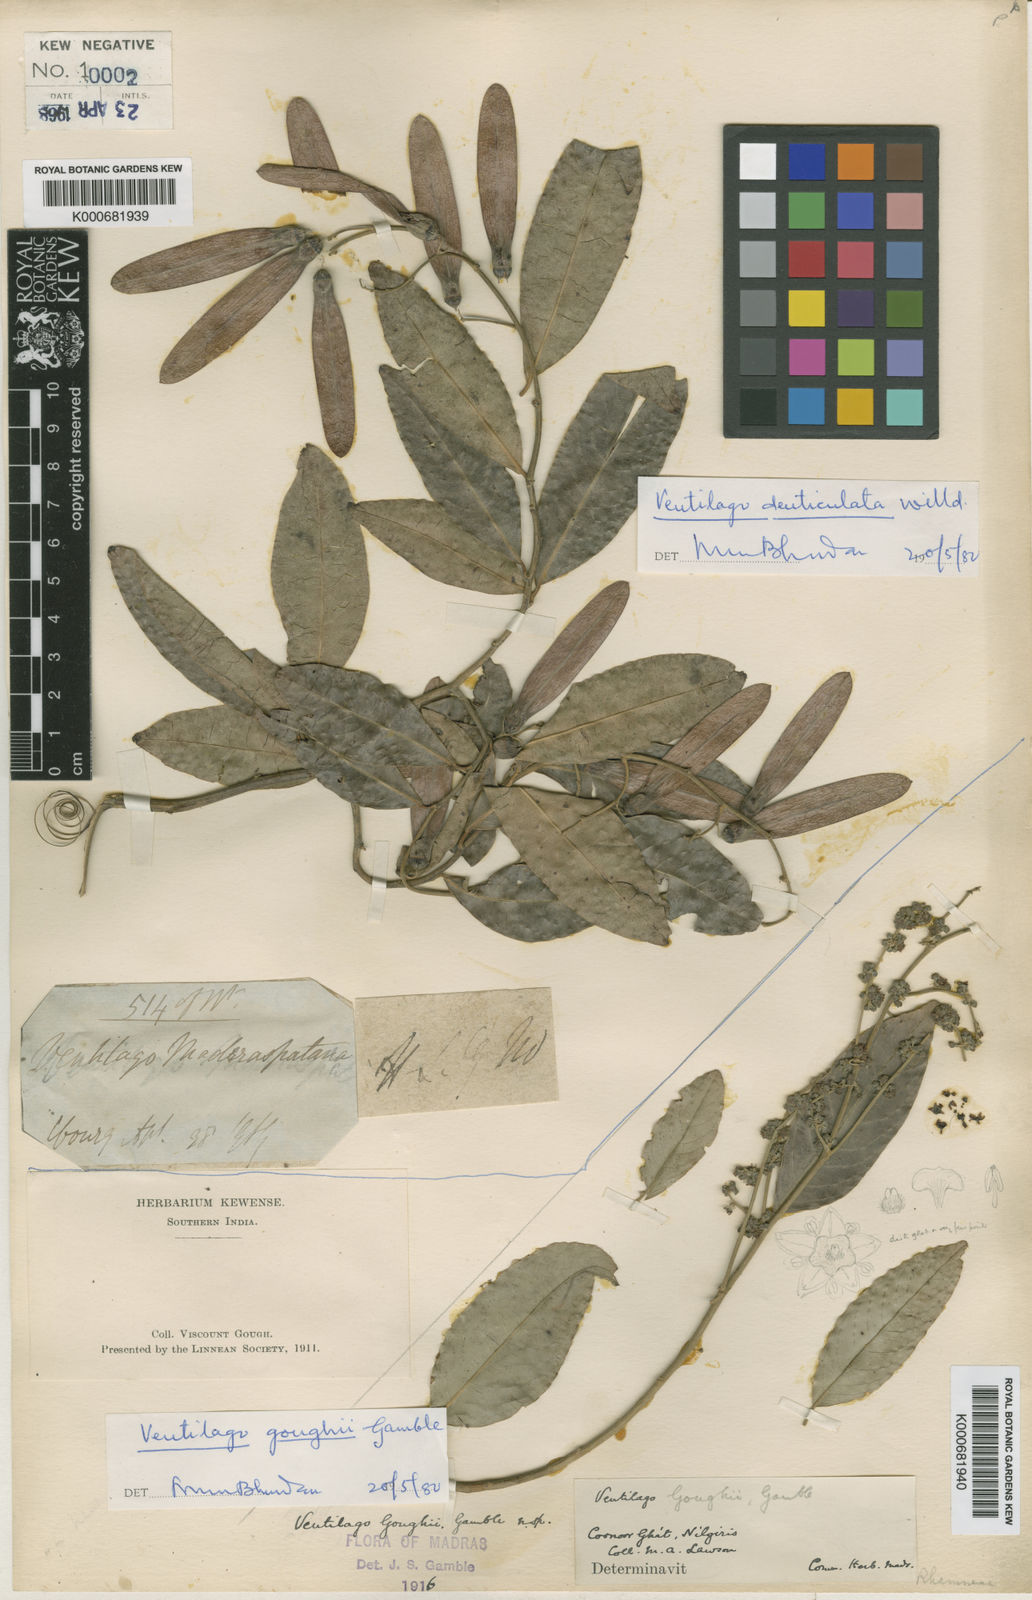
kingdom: Plantae
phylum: Tracheophyta
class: Magnoliopsida
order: Rosales
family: Rhamnaceae
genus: Ventilago
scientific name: Ventilago goughii
